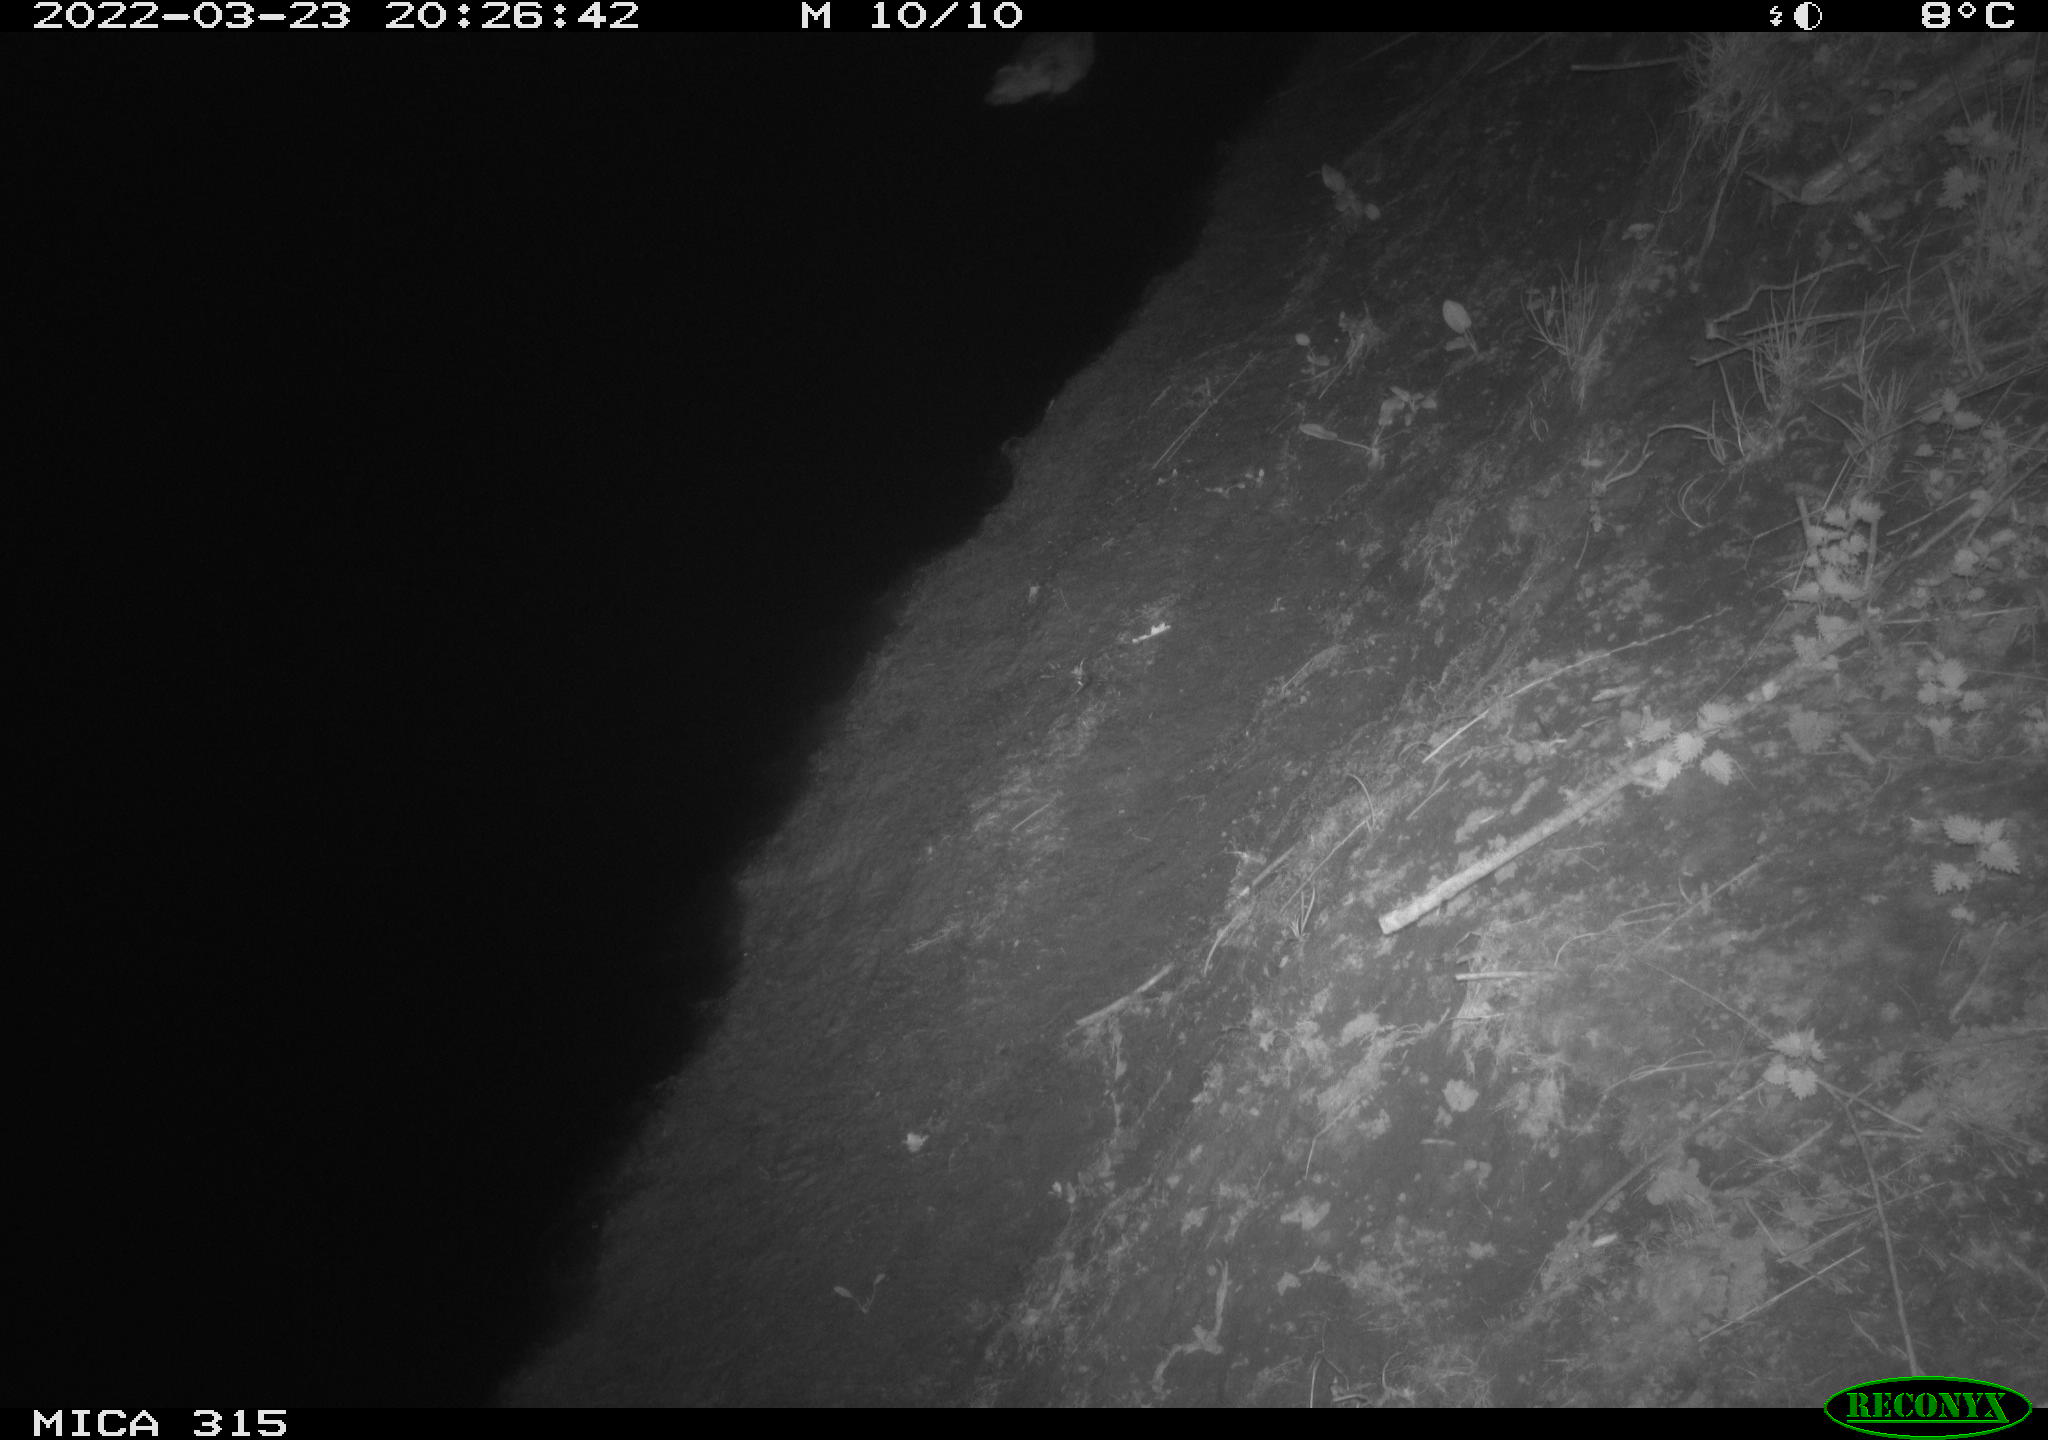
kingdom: Animalia
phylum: Chordata
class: Aves
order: Anseriformes
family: Anatidae
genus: Anas
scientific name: Anas platyrhynchos
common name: Mallard
